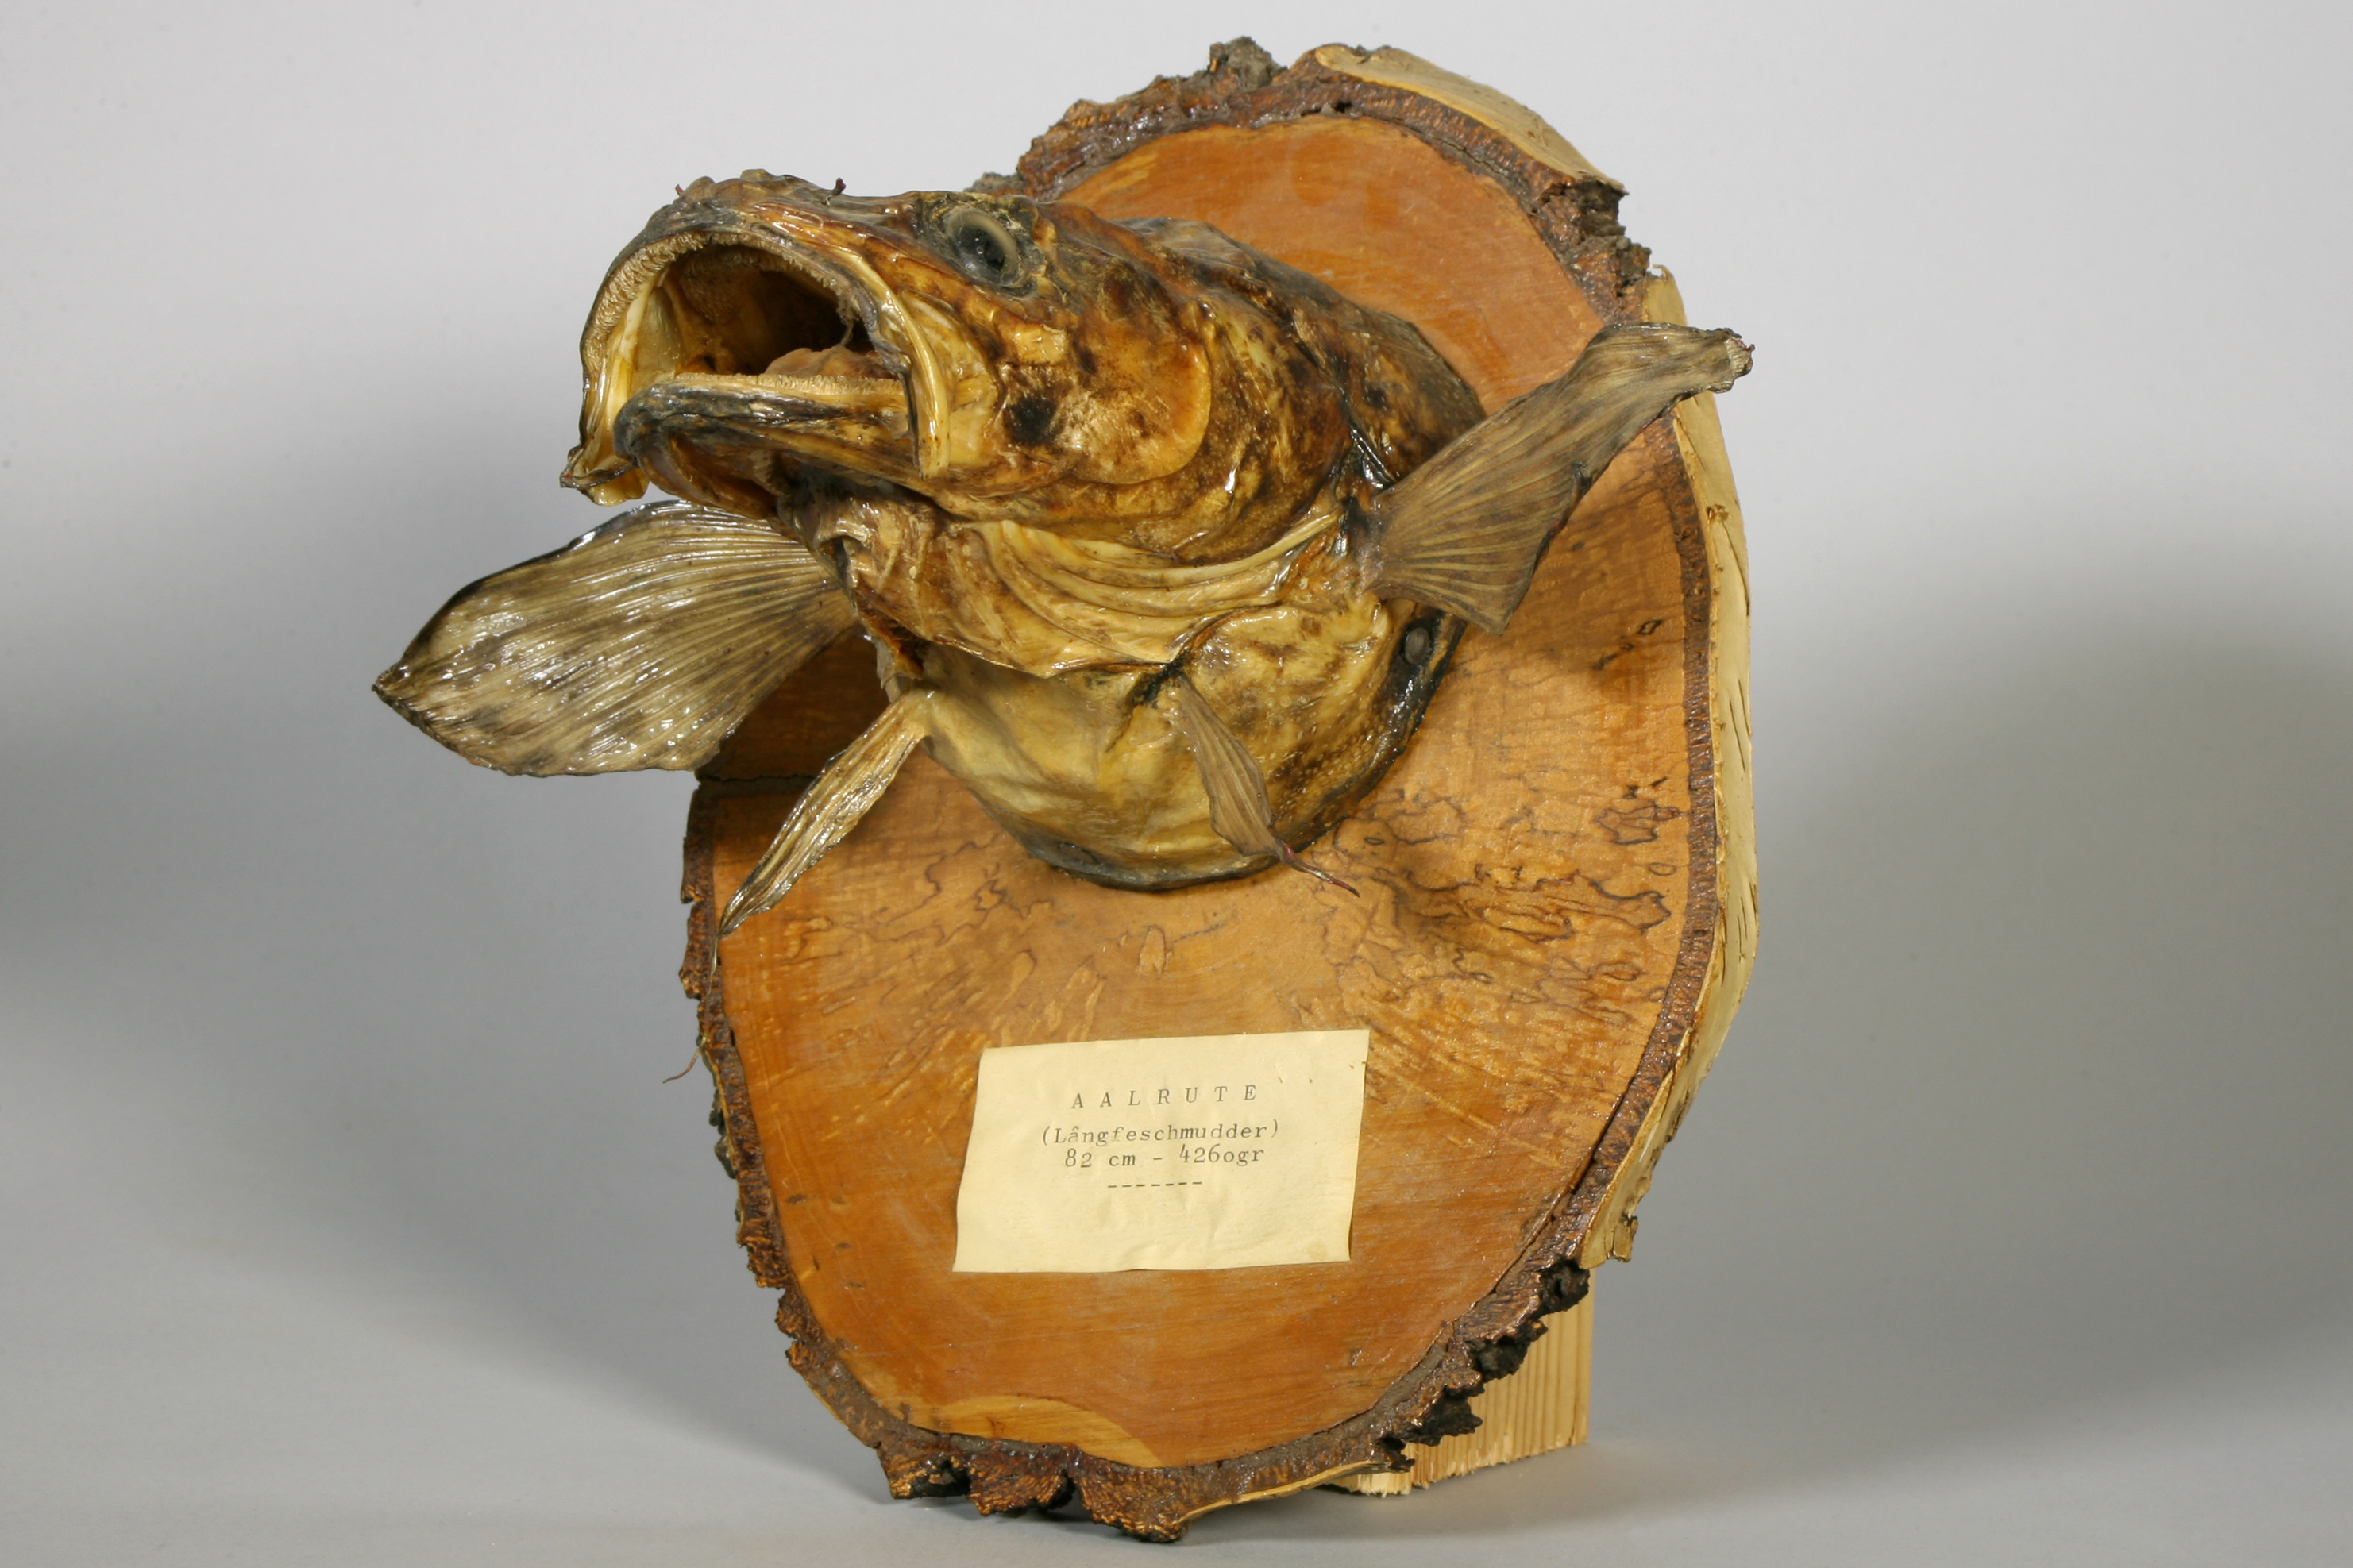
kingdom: Animalia
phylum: Chordata
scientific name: Chordata
